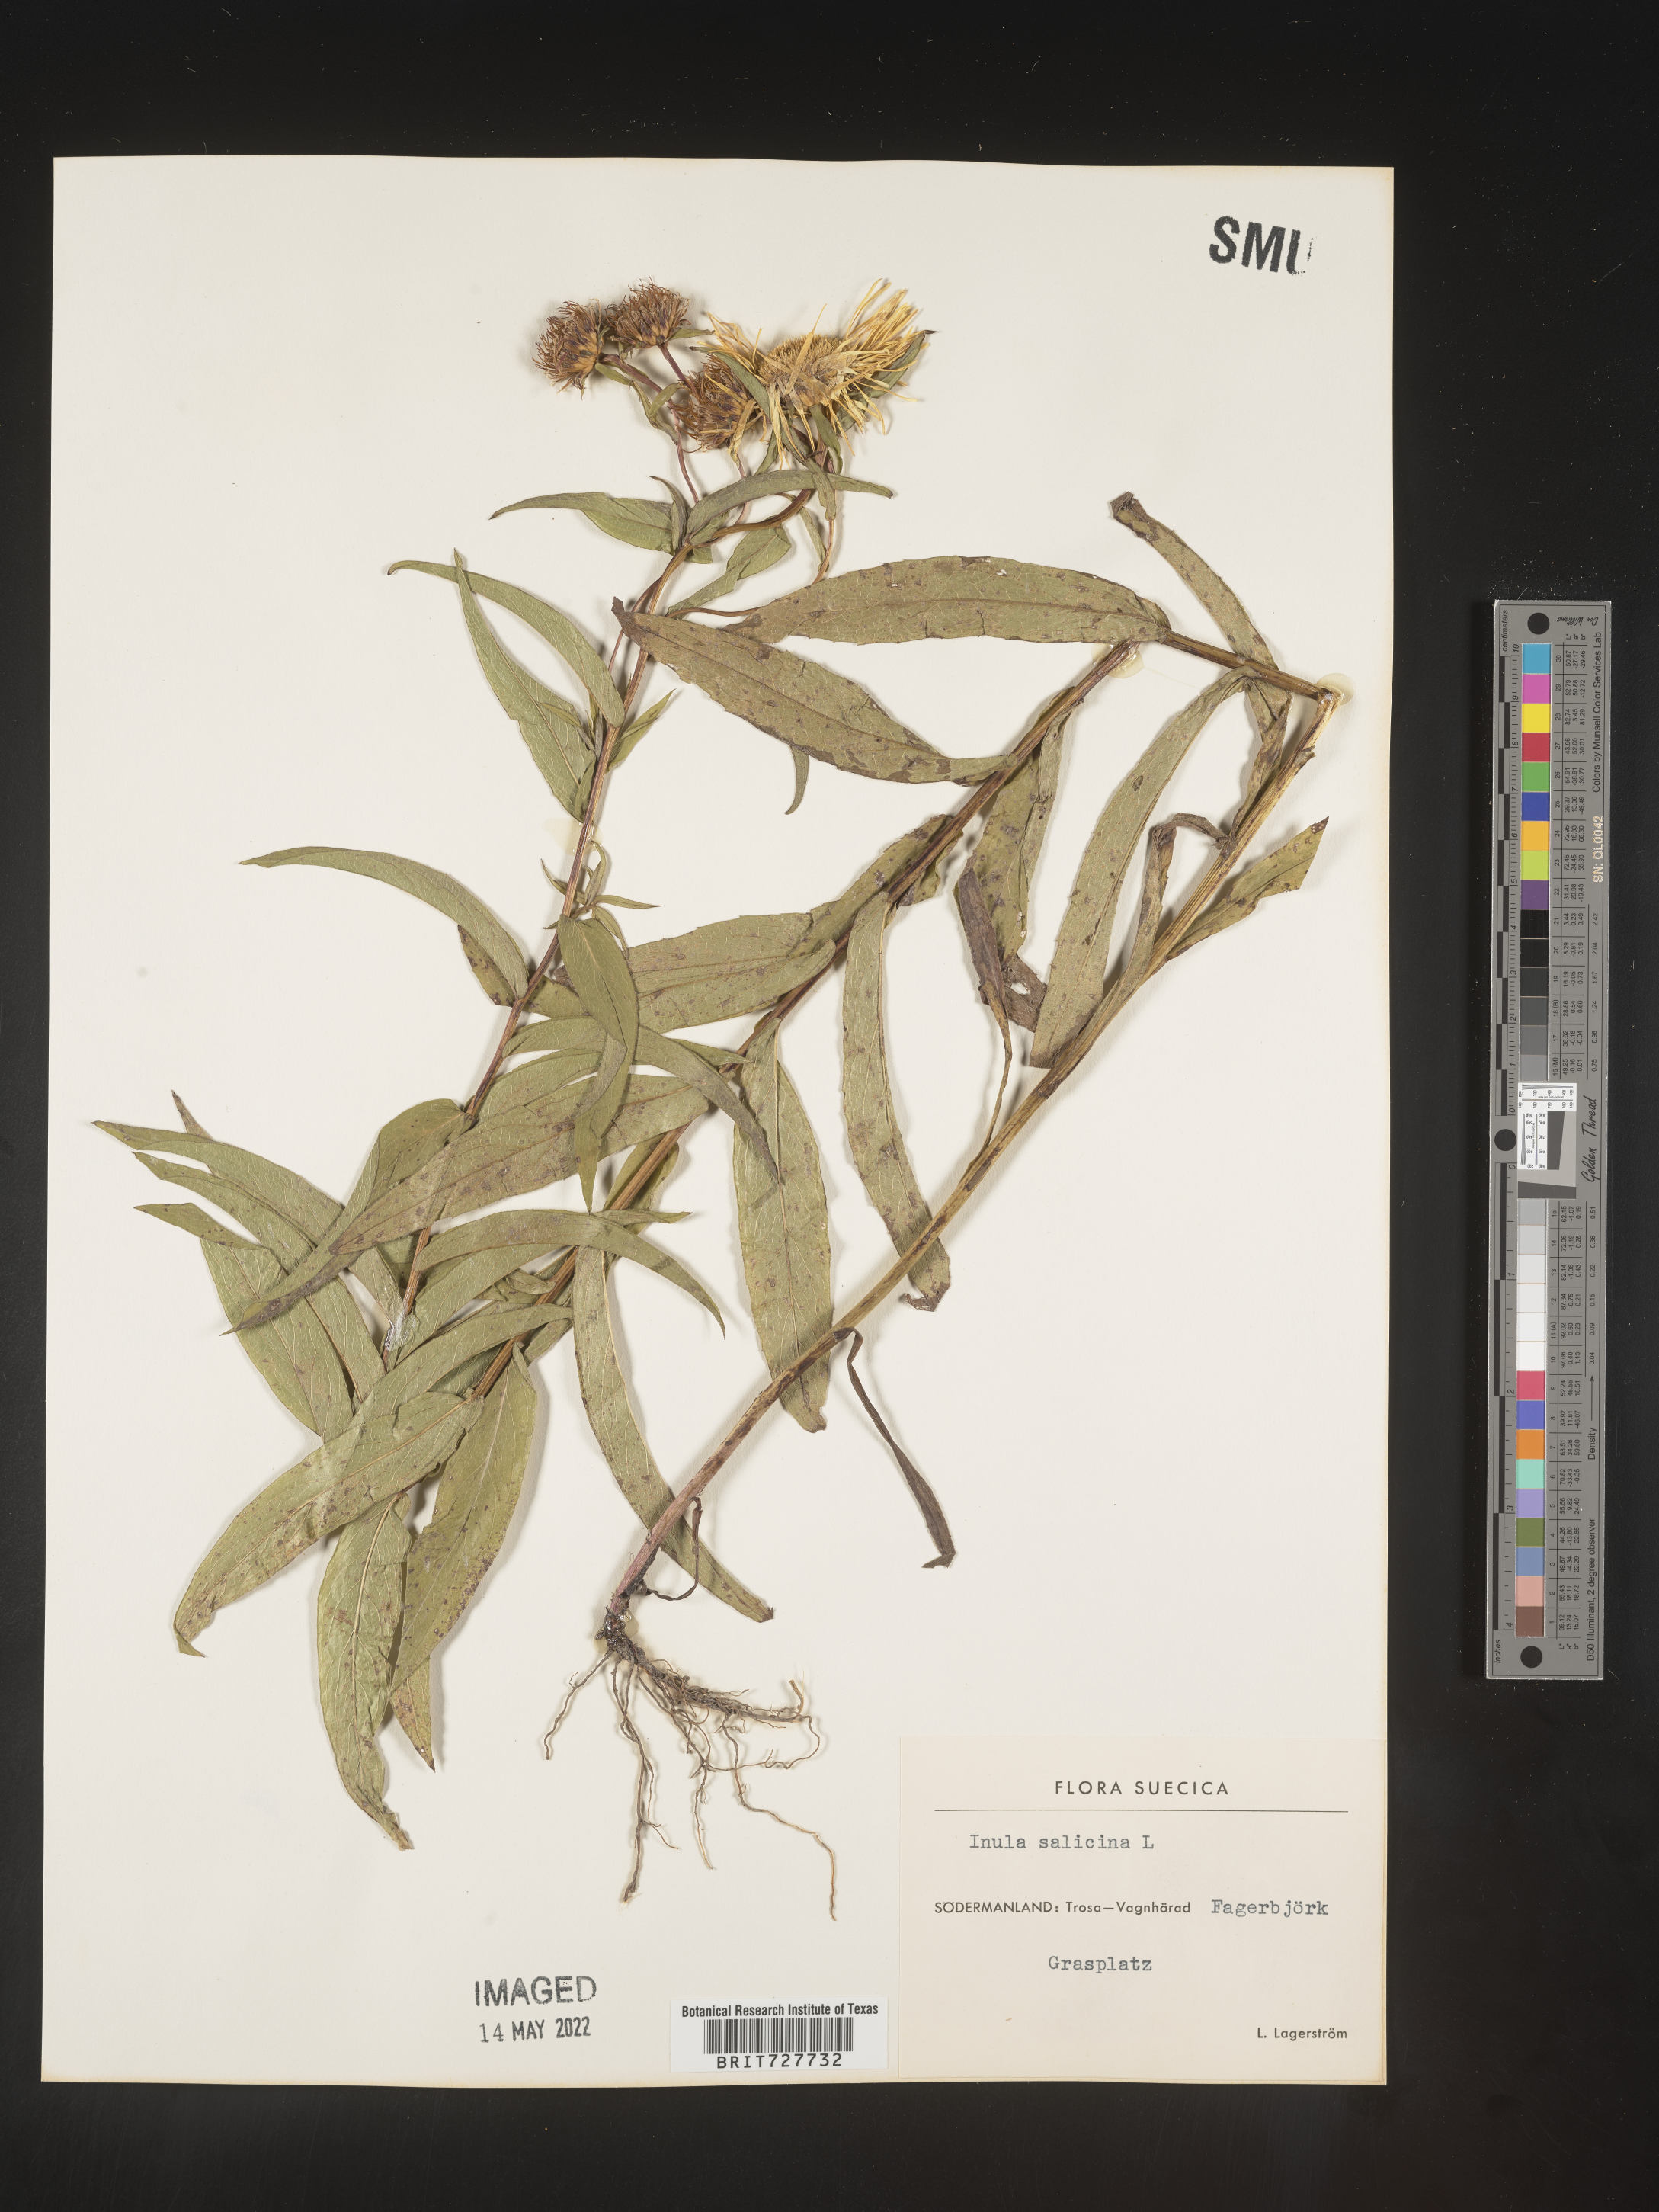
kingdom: Plantae
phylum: Tracheophyta
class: Magnoliopsida
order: Asterales
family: Asteraceae
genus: Inula
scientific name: Inula
